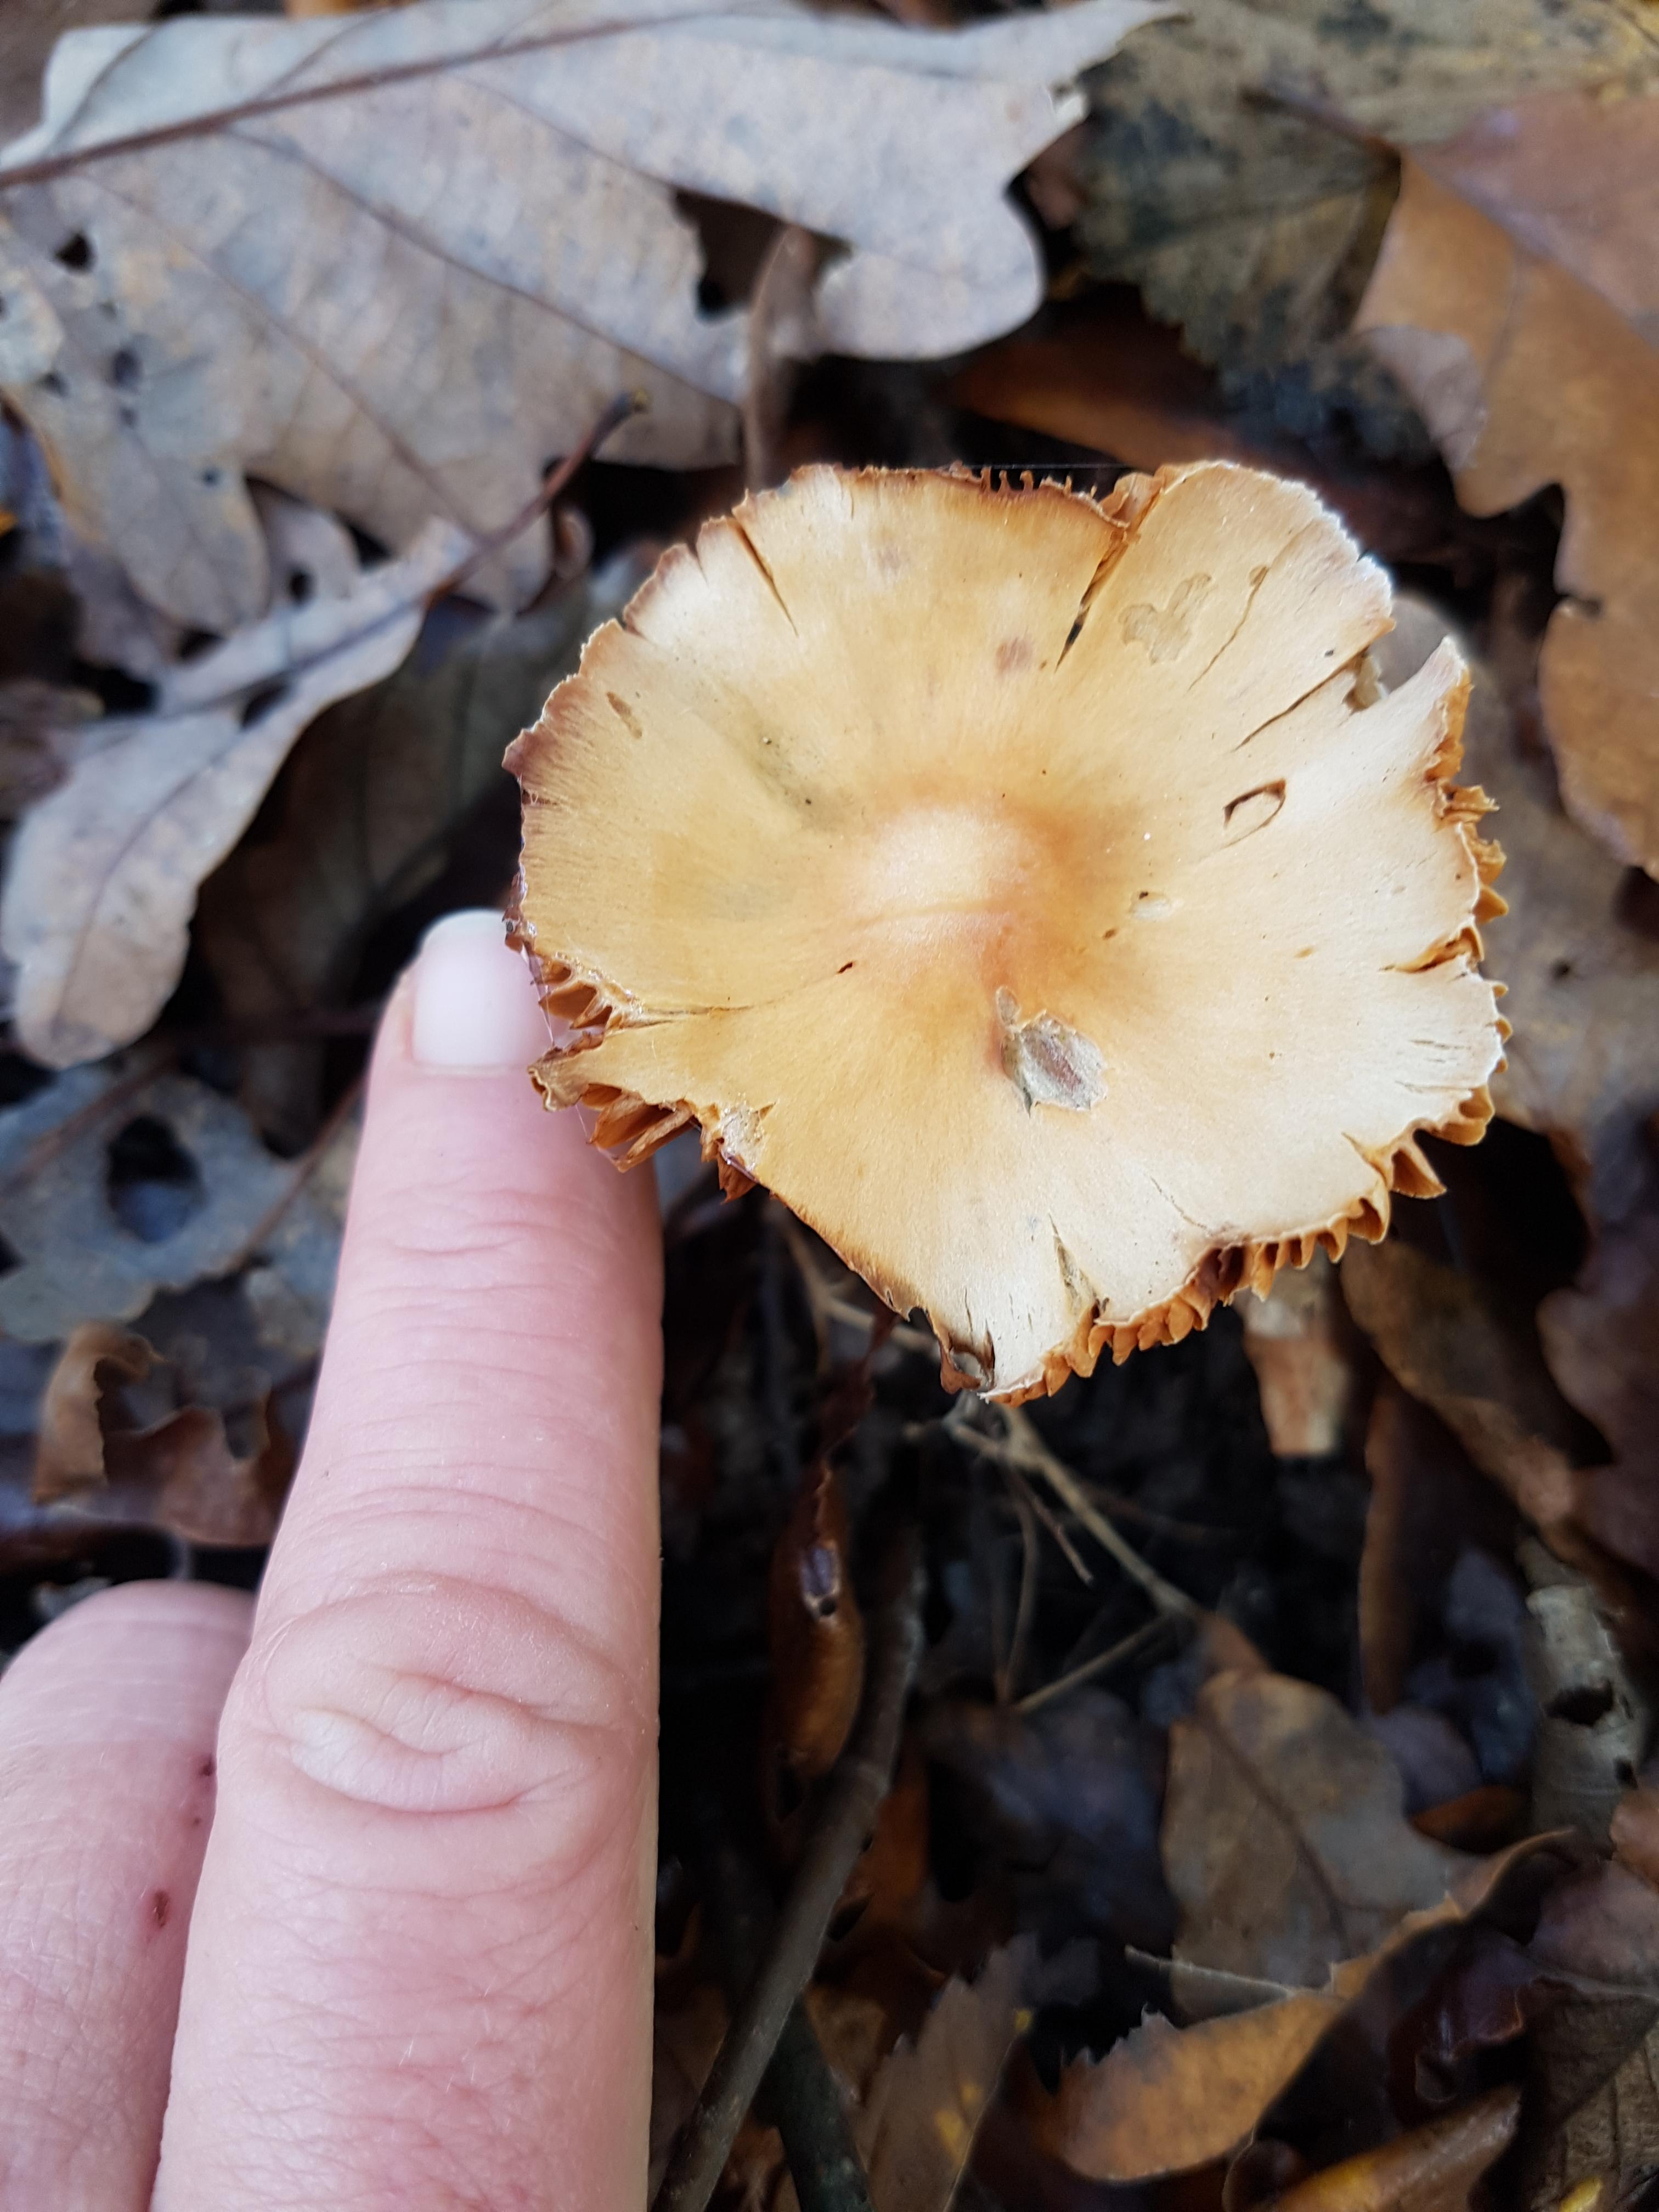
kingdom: Fungi
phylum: Basidiomycota
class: Agaricomycetes
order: Agaricales
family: Cortinariaceae
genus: Cortinarius
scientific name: Cortinarius
